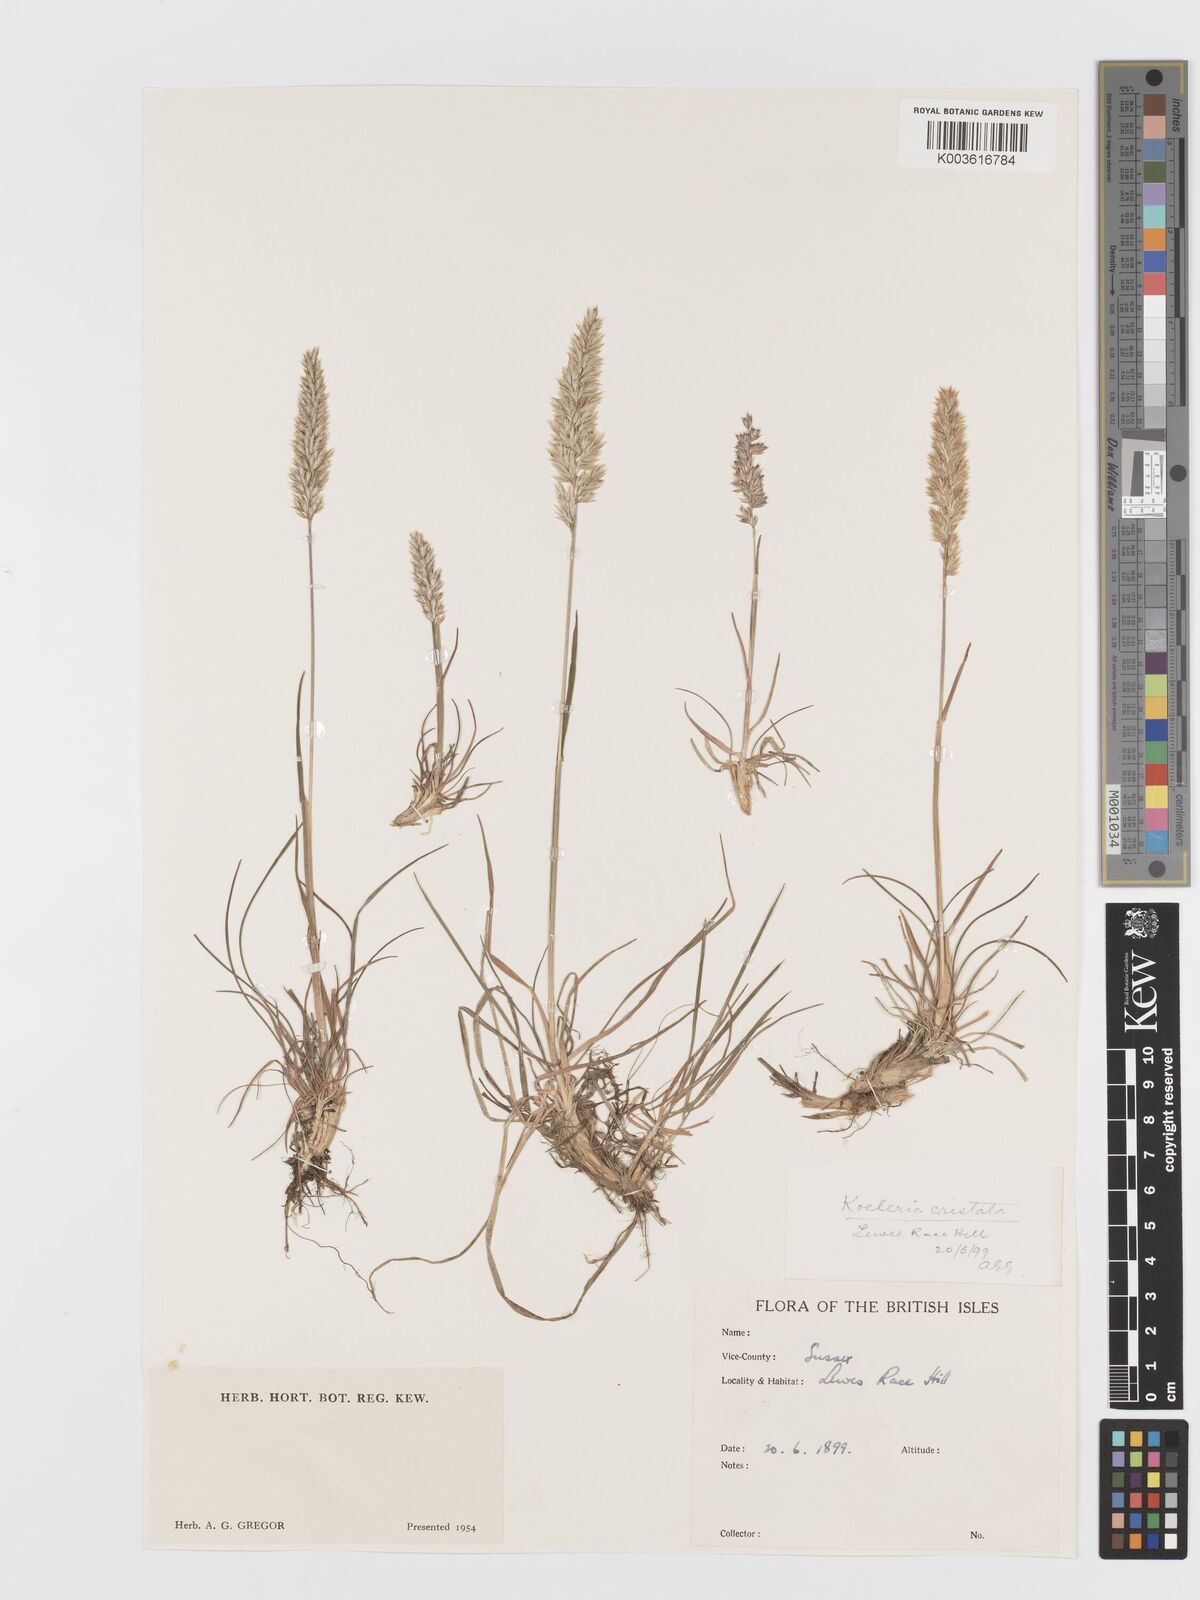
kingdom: Plantae
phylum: Tracheophyta
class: Liliopsida
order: Poales
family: Poaceae
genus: Koeleria
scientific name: Koeleria macrantha
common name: Crested hair-grass
